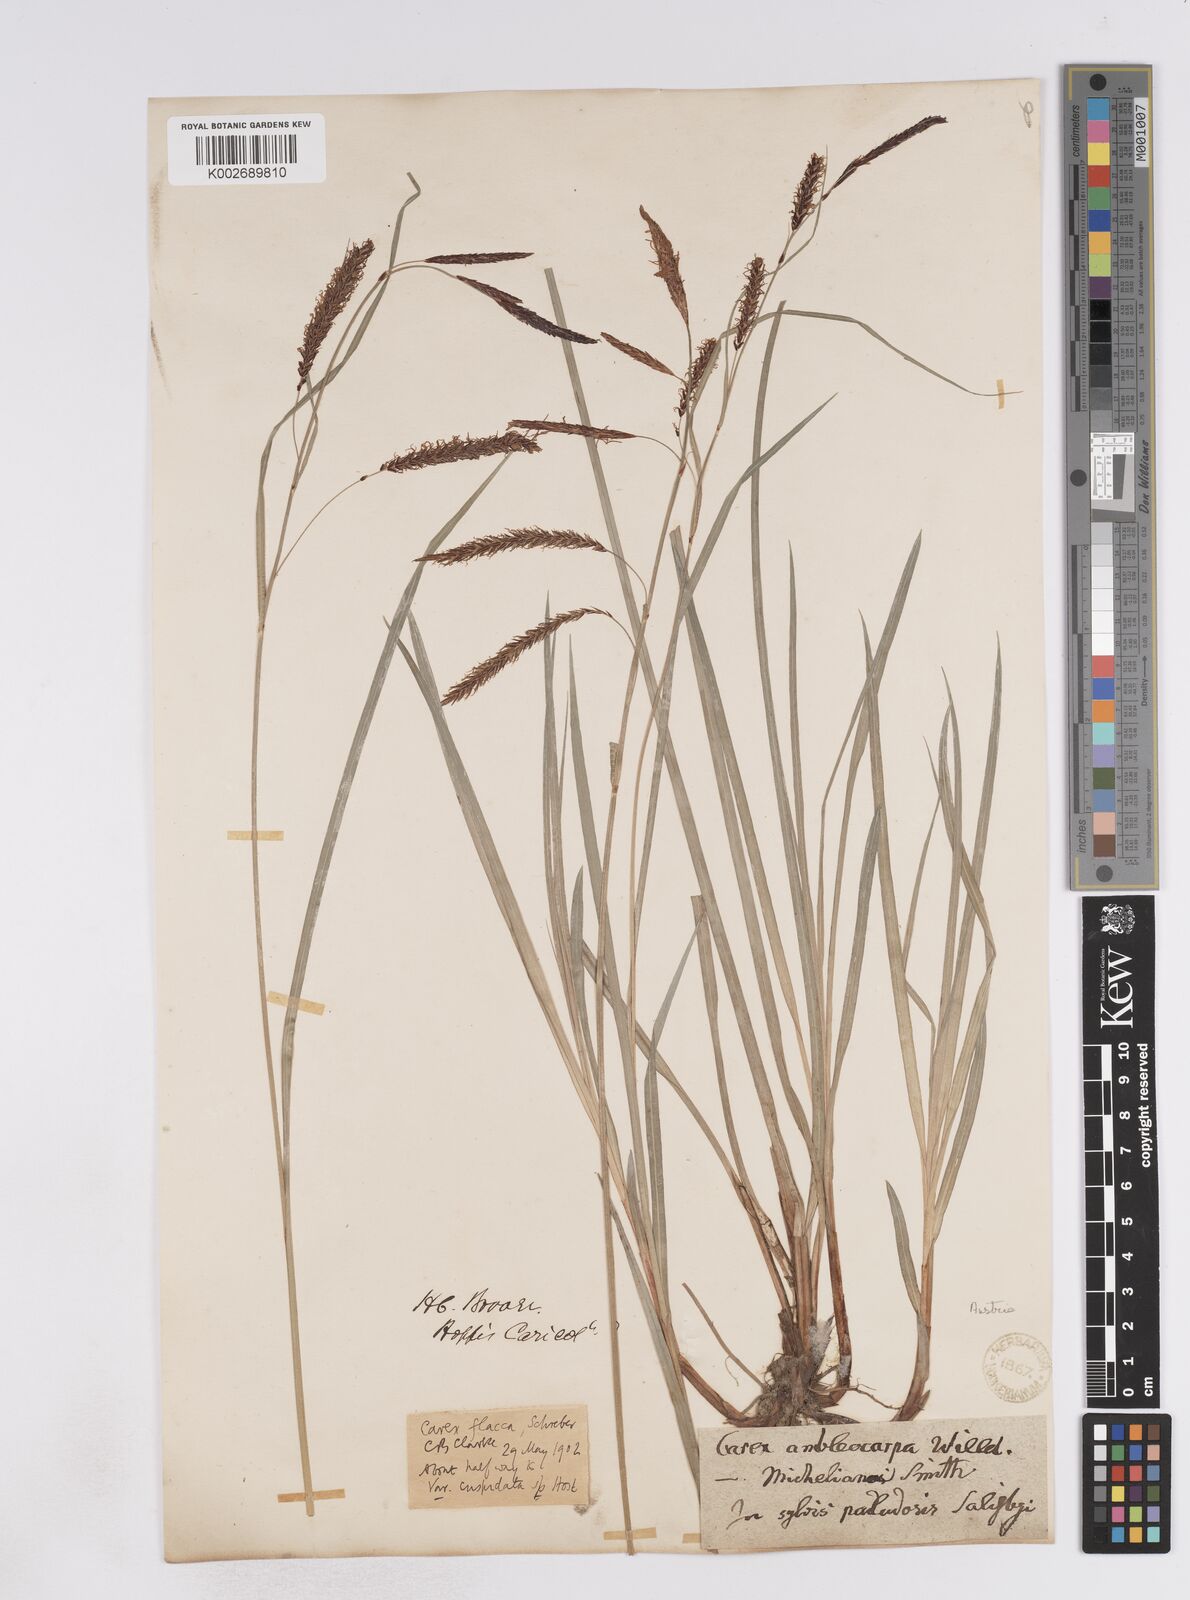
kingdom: Plantae
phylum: Tracheophyta
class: Liliopsida
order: Poales
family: Cyperaceae
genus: Carex
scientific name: Carex flacca
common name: Glaucous sedge
